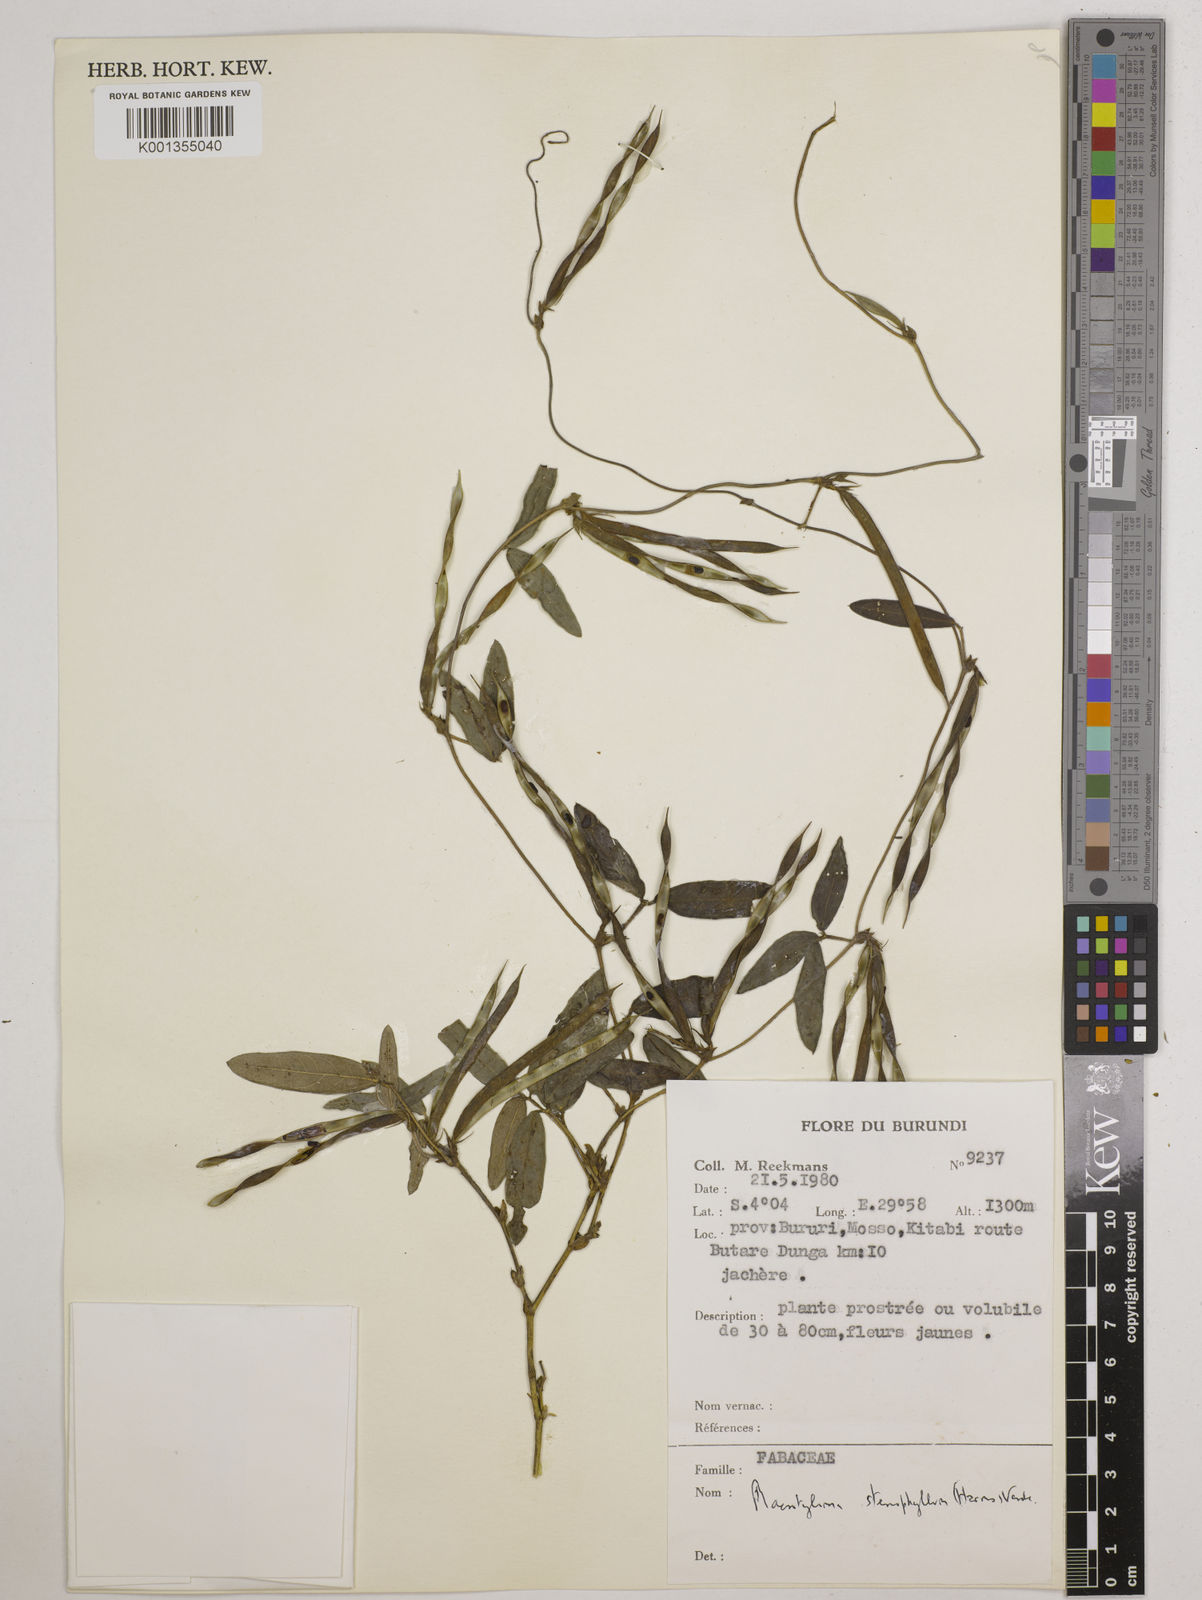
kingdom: Plantae
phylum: Tracheophyta
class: Magnoliopsida
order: Fabales
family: Fabaceae
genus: Macrotyloma
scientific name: Macrotyloma stenophyllum
